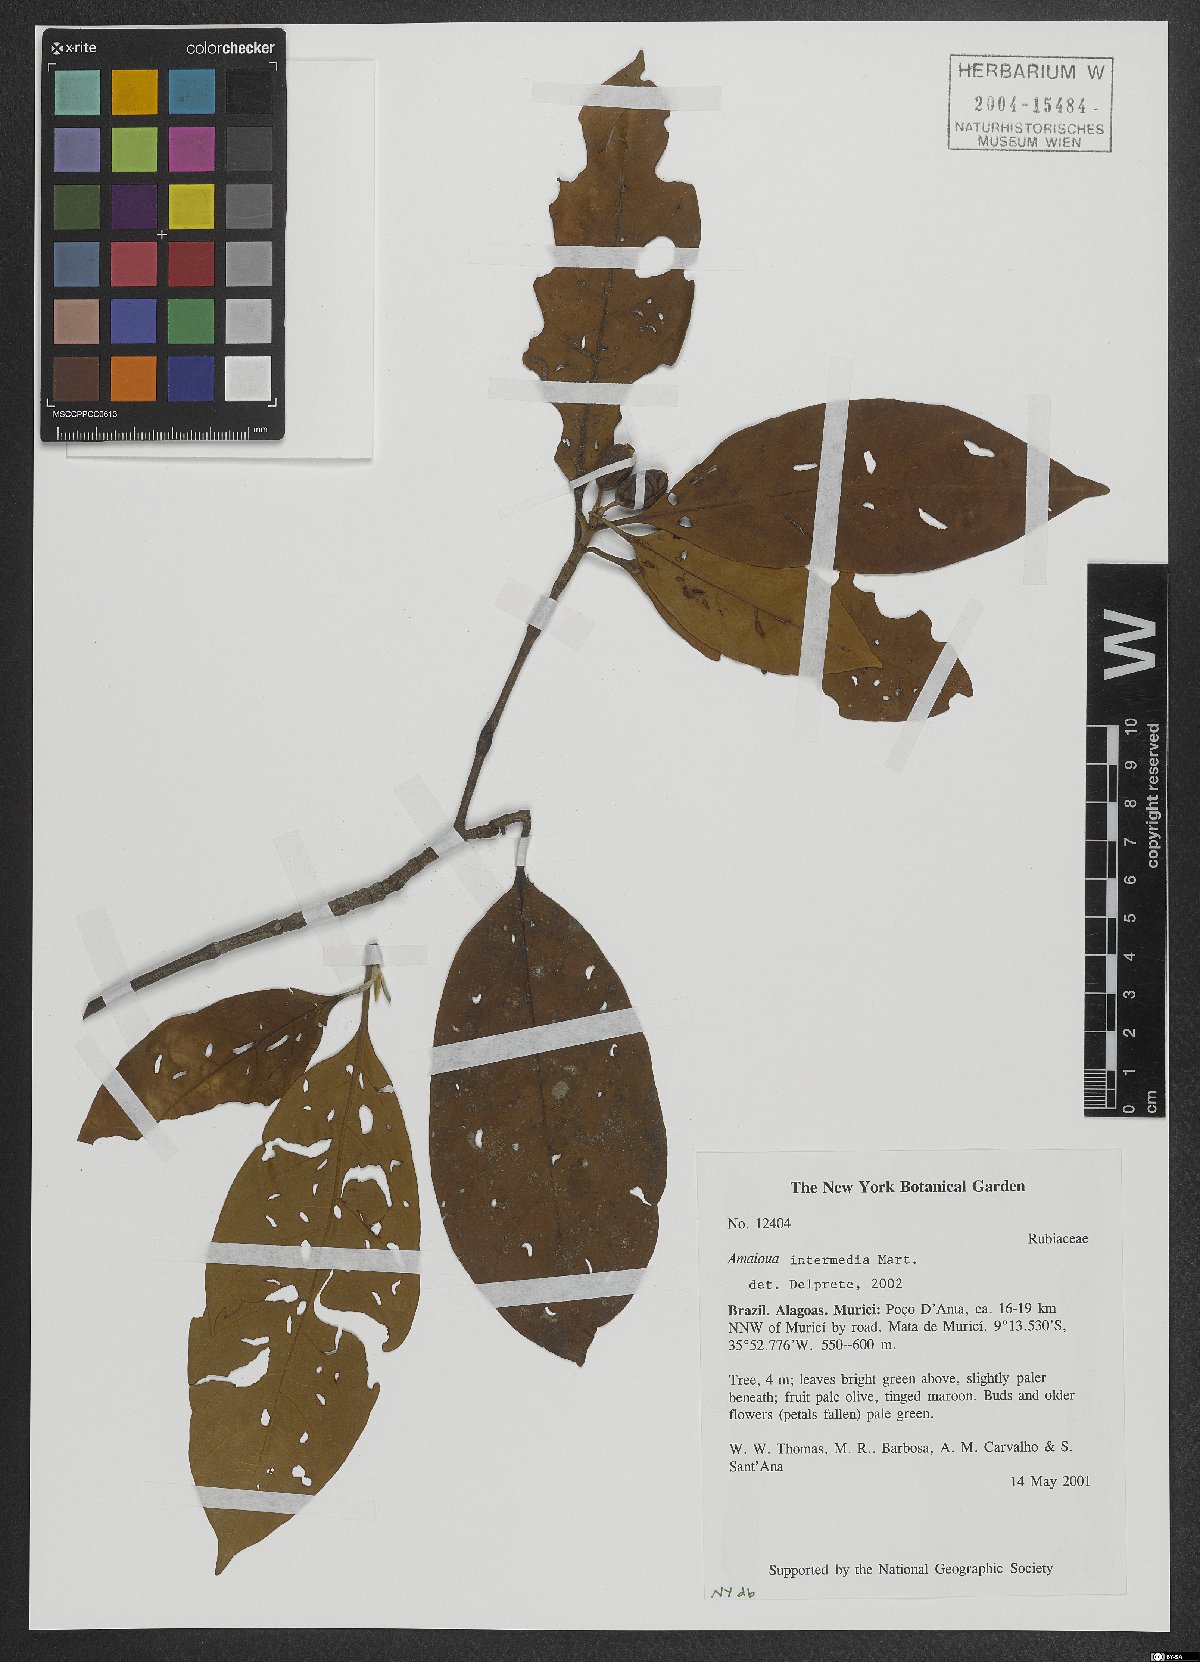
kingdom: Plantae
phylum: Tracheophyta
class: Magnoliopsida
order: Gentianales
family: Rubiaceae
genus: Amaioua
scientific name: Amaioua intermedia
